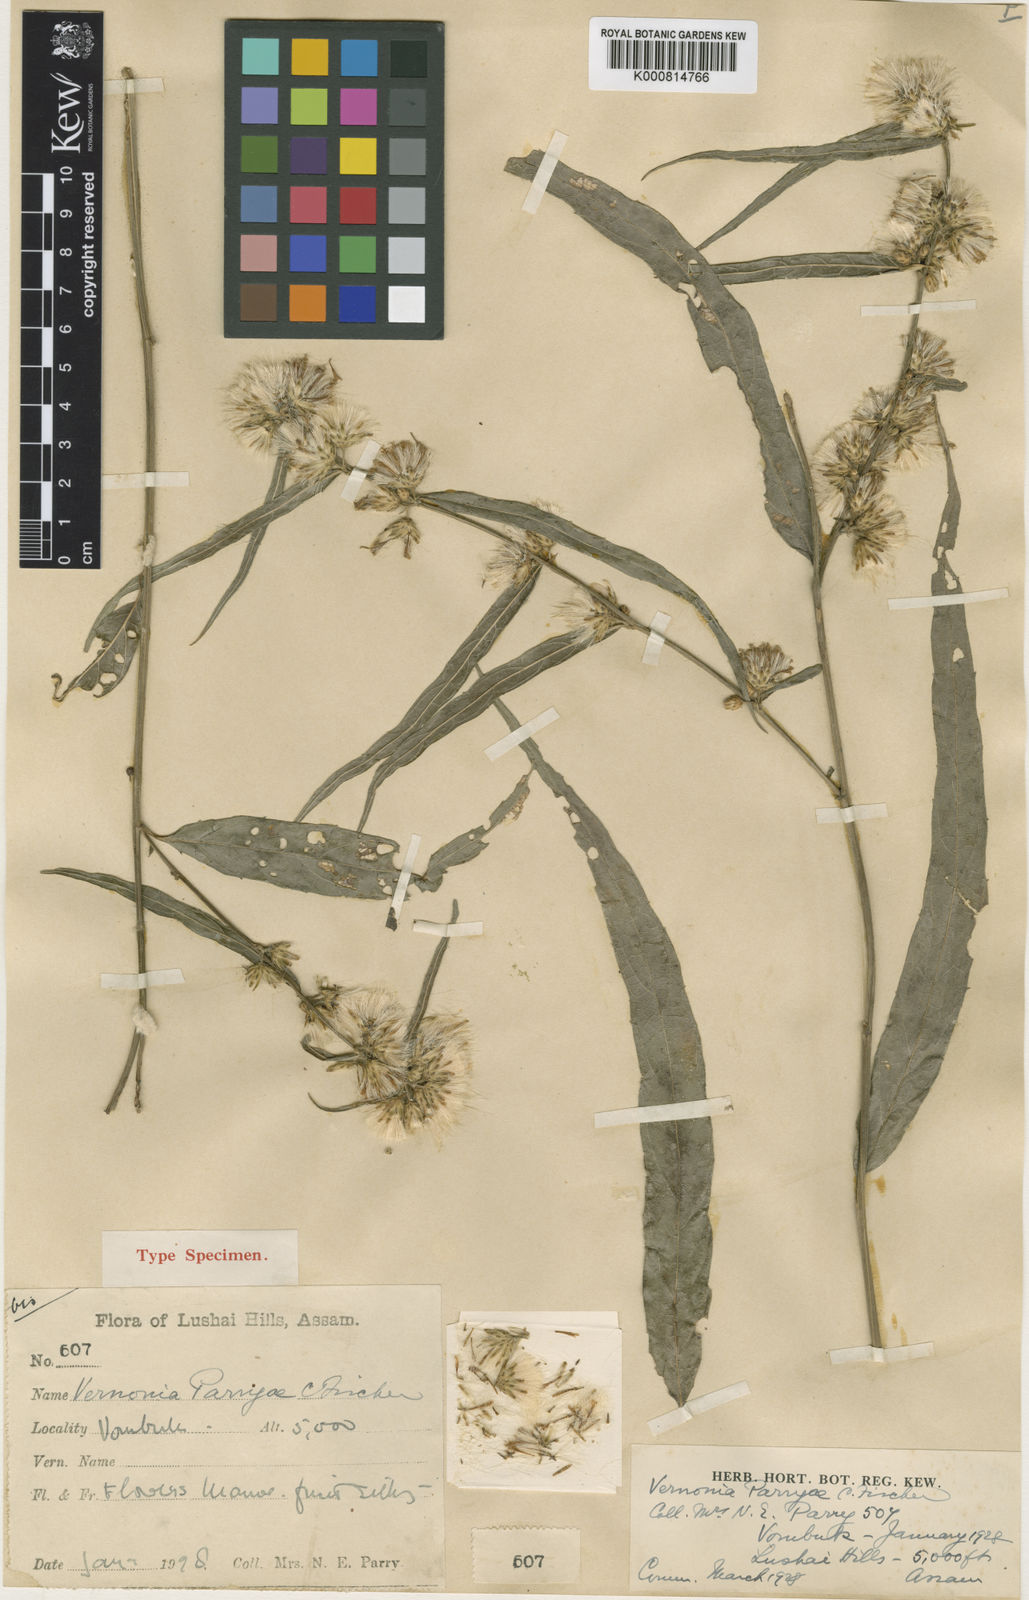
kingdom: Plantae
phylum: Tracheophyta
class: Magnoliopsida
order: Asterales
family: Asteraceae
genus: Vernonia
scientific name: Vernonia parryae
